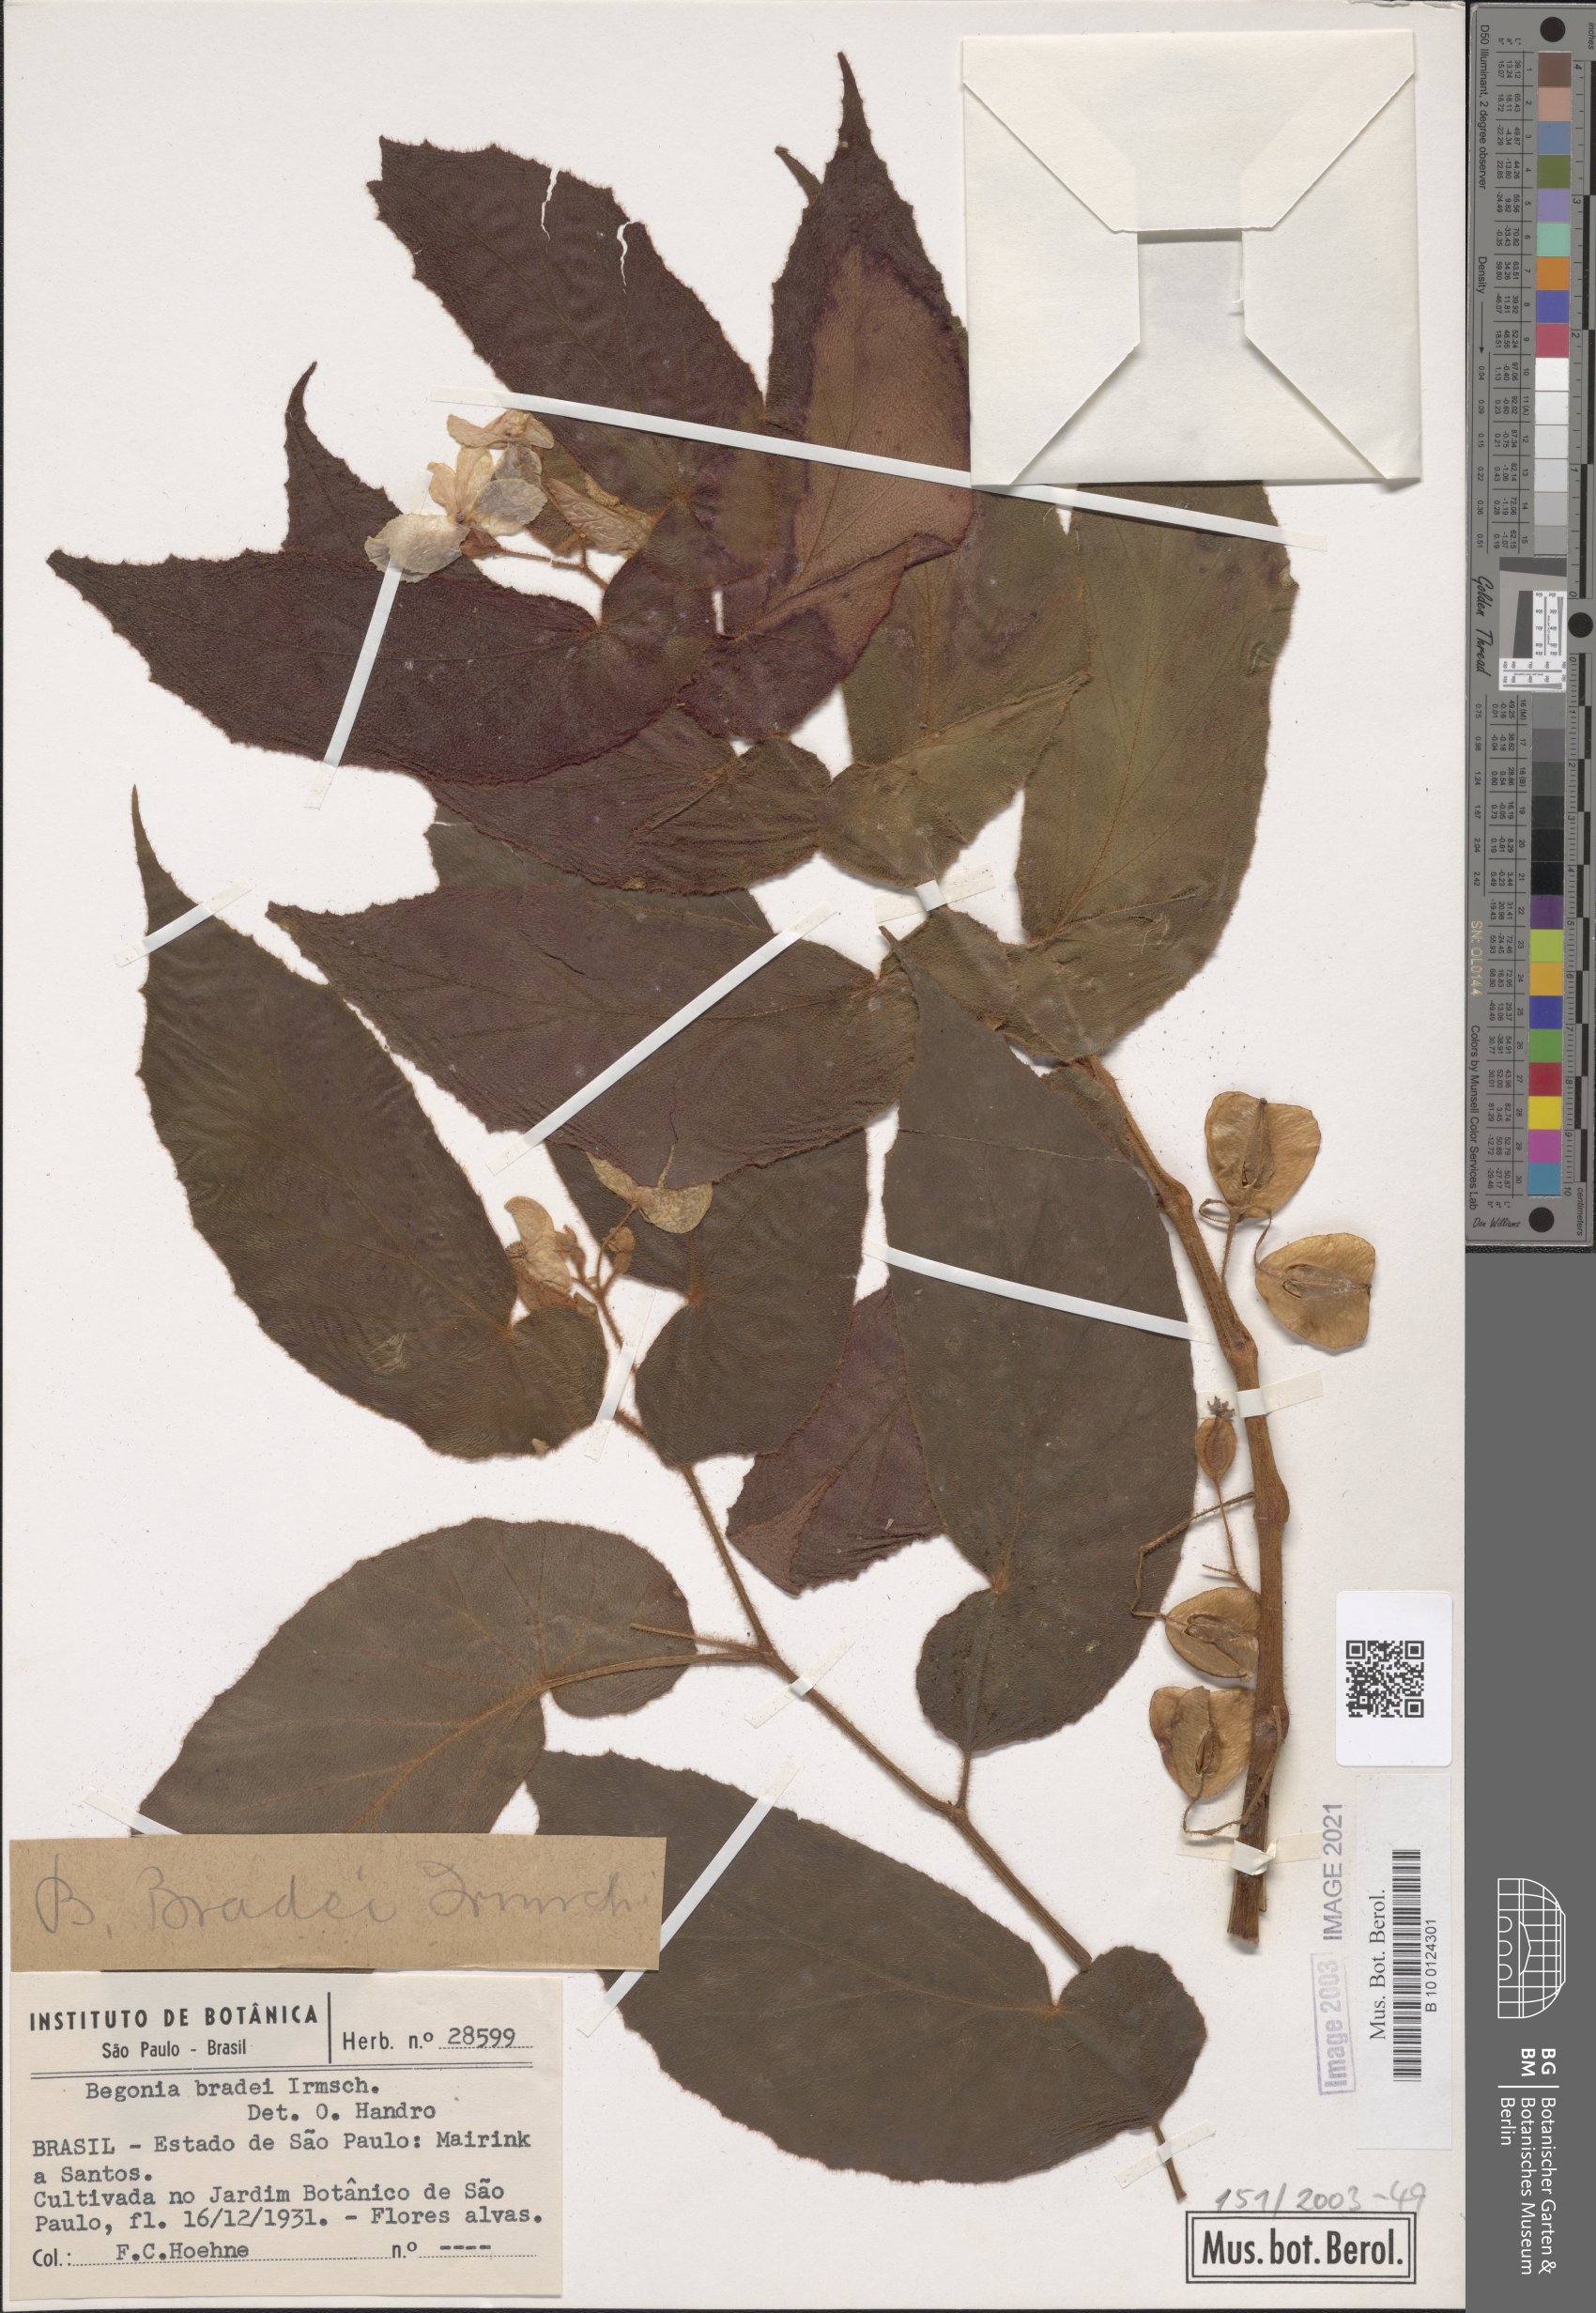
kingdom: Plantae
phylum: Tracheophyta
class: Magnoliopsida
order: Cucurbitales
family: Begoniaceae
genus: Begonia
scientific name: Begonia bradei
